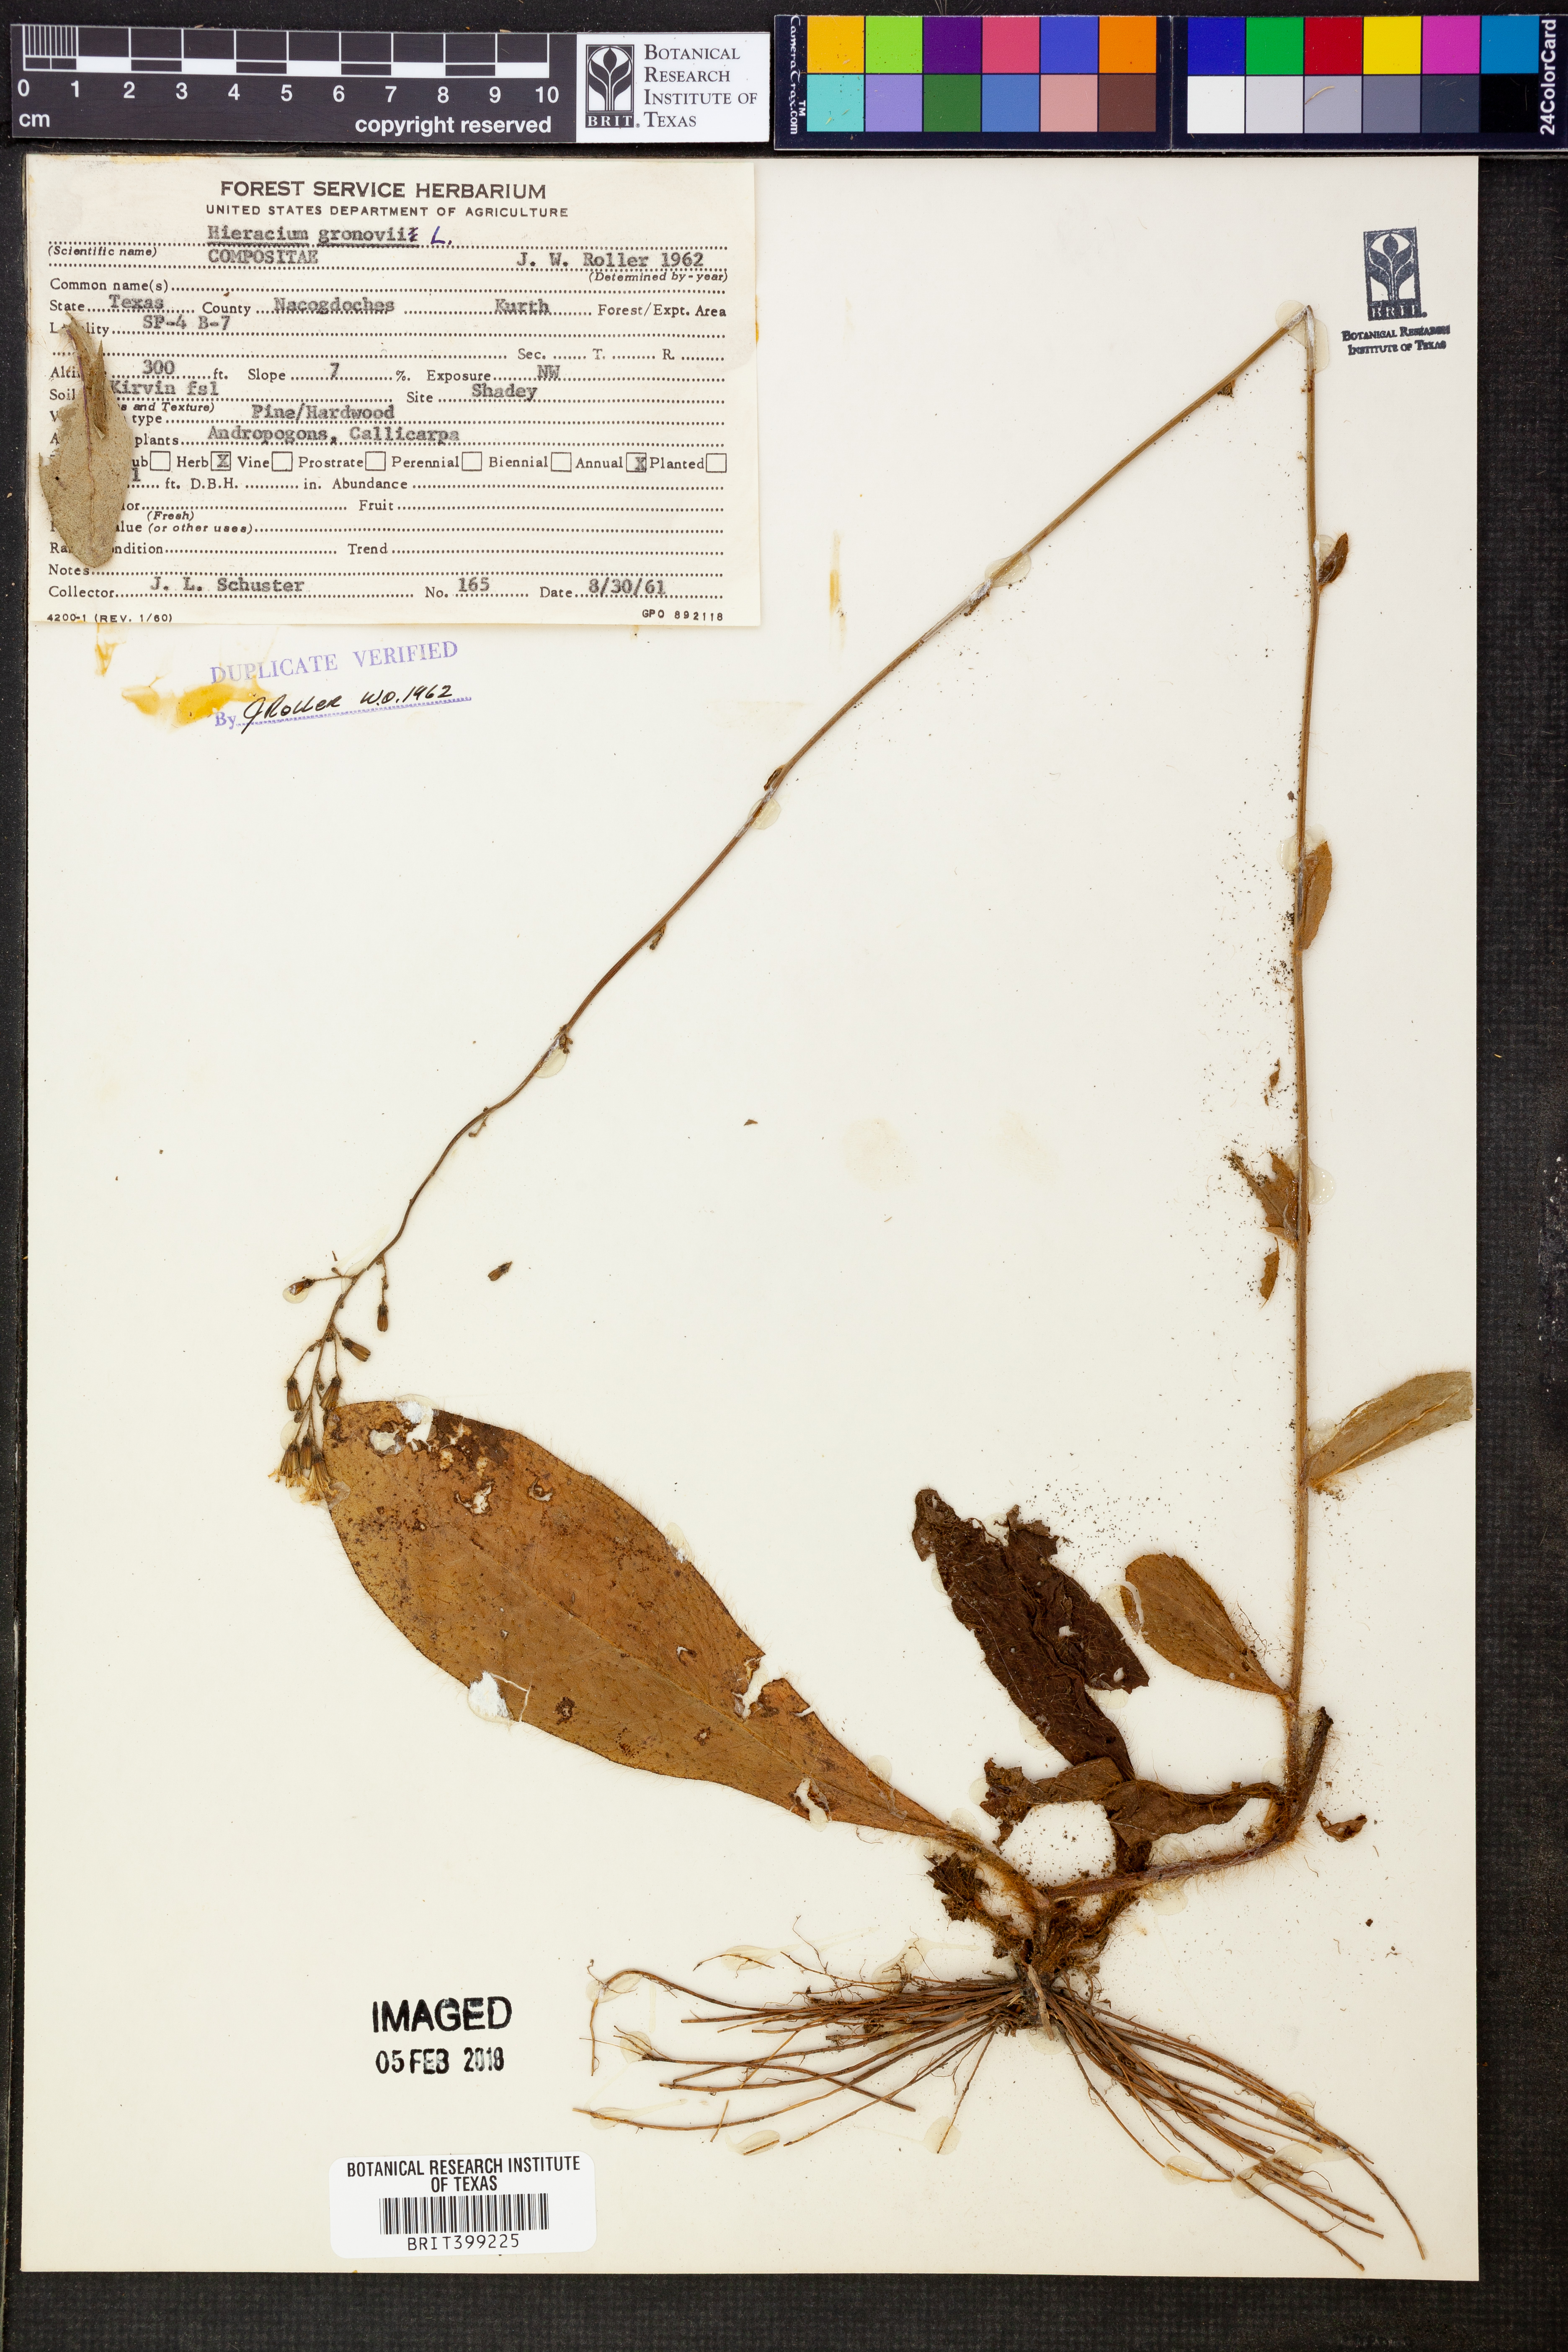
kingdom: Plantae
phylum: Tracheophyta
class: Magnoliopsida
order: Asterales
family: Asteraceae
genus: Hieracium
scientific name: Hieracium gronovii
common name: Beaked hawkweed
